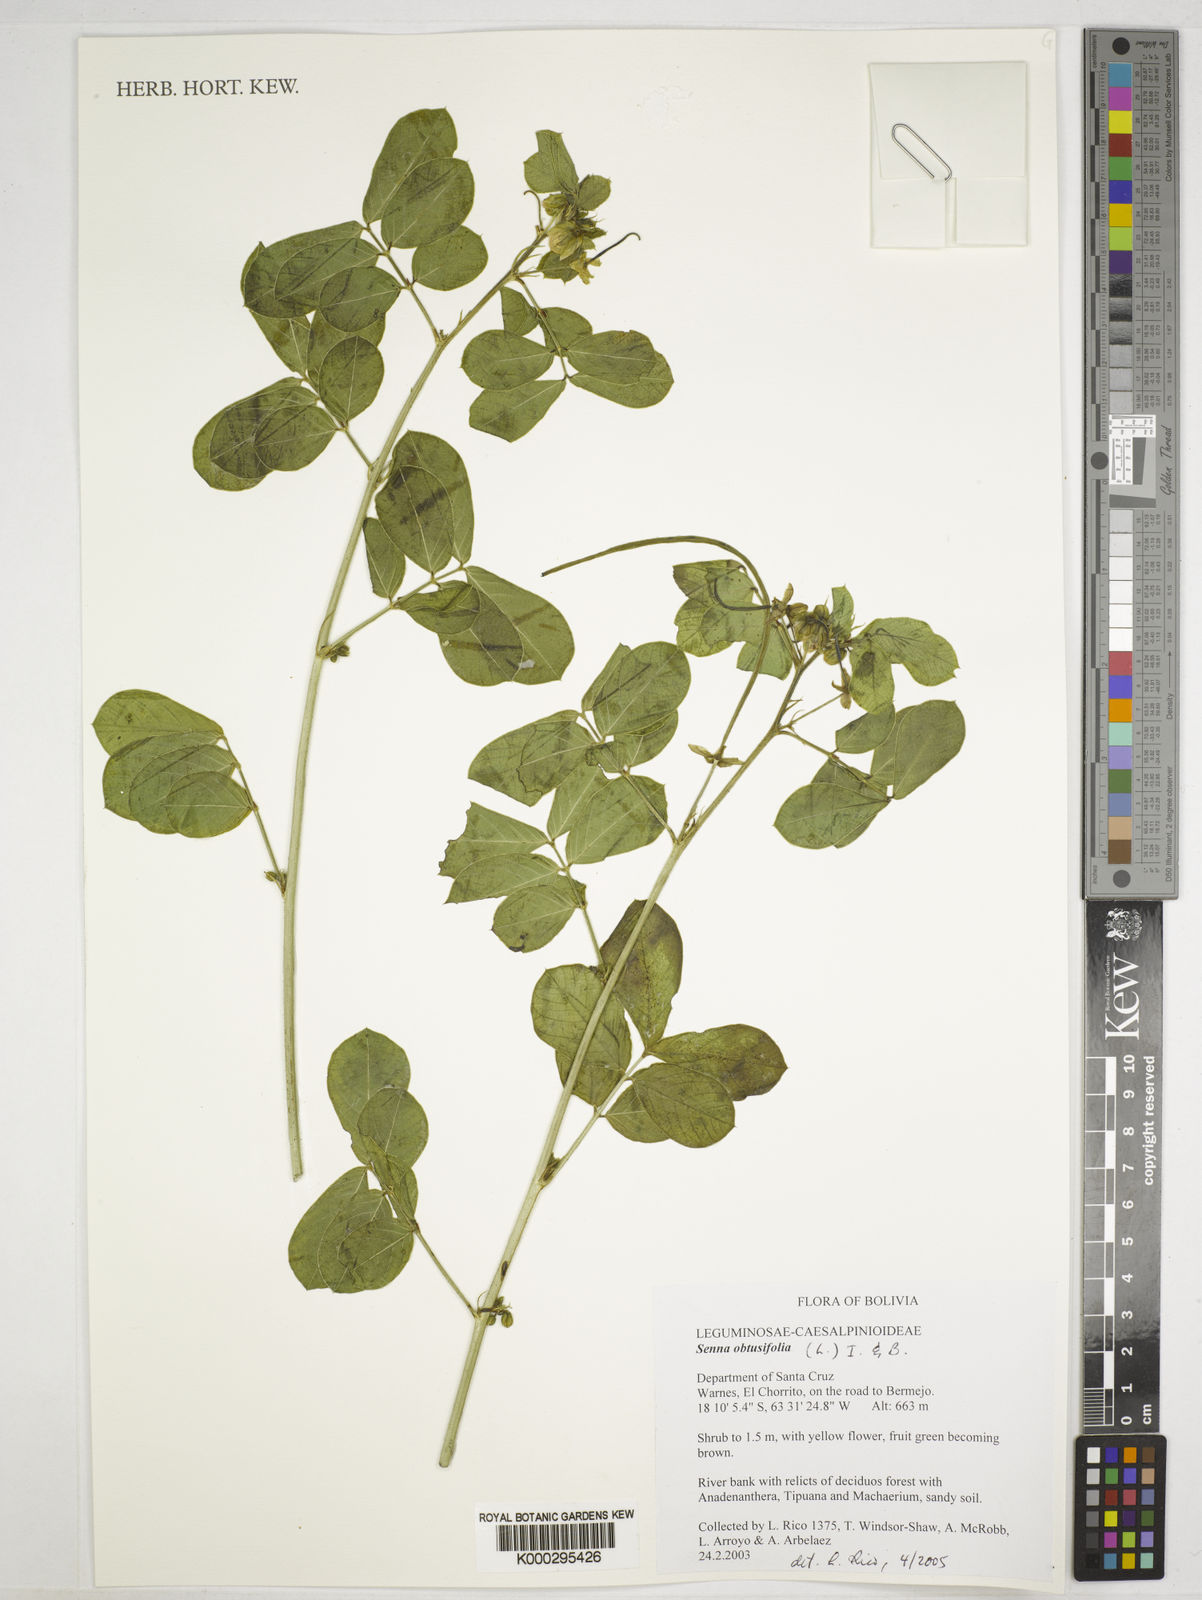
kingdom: Plantae
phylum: Tracheophyta
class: Magnoliopsida
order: Fabales
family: Fabaceae
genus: Senna
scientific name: Senna obtusifolia
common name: Java-bean
